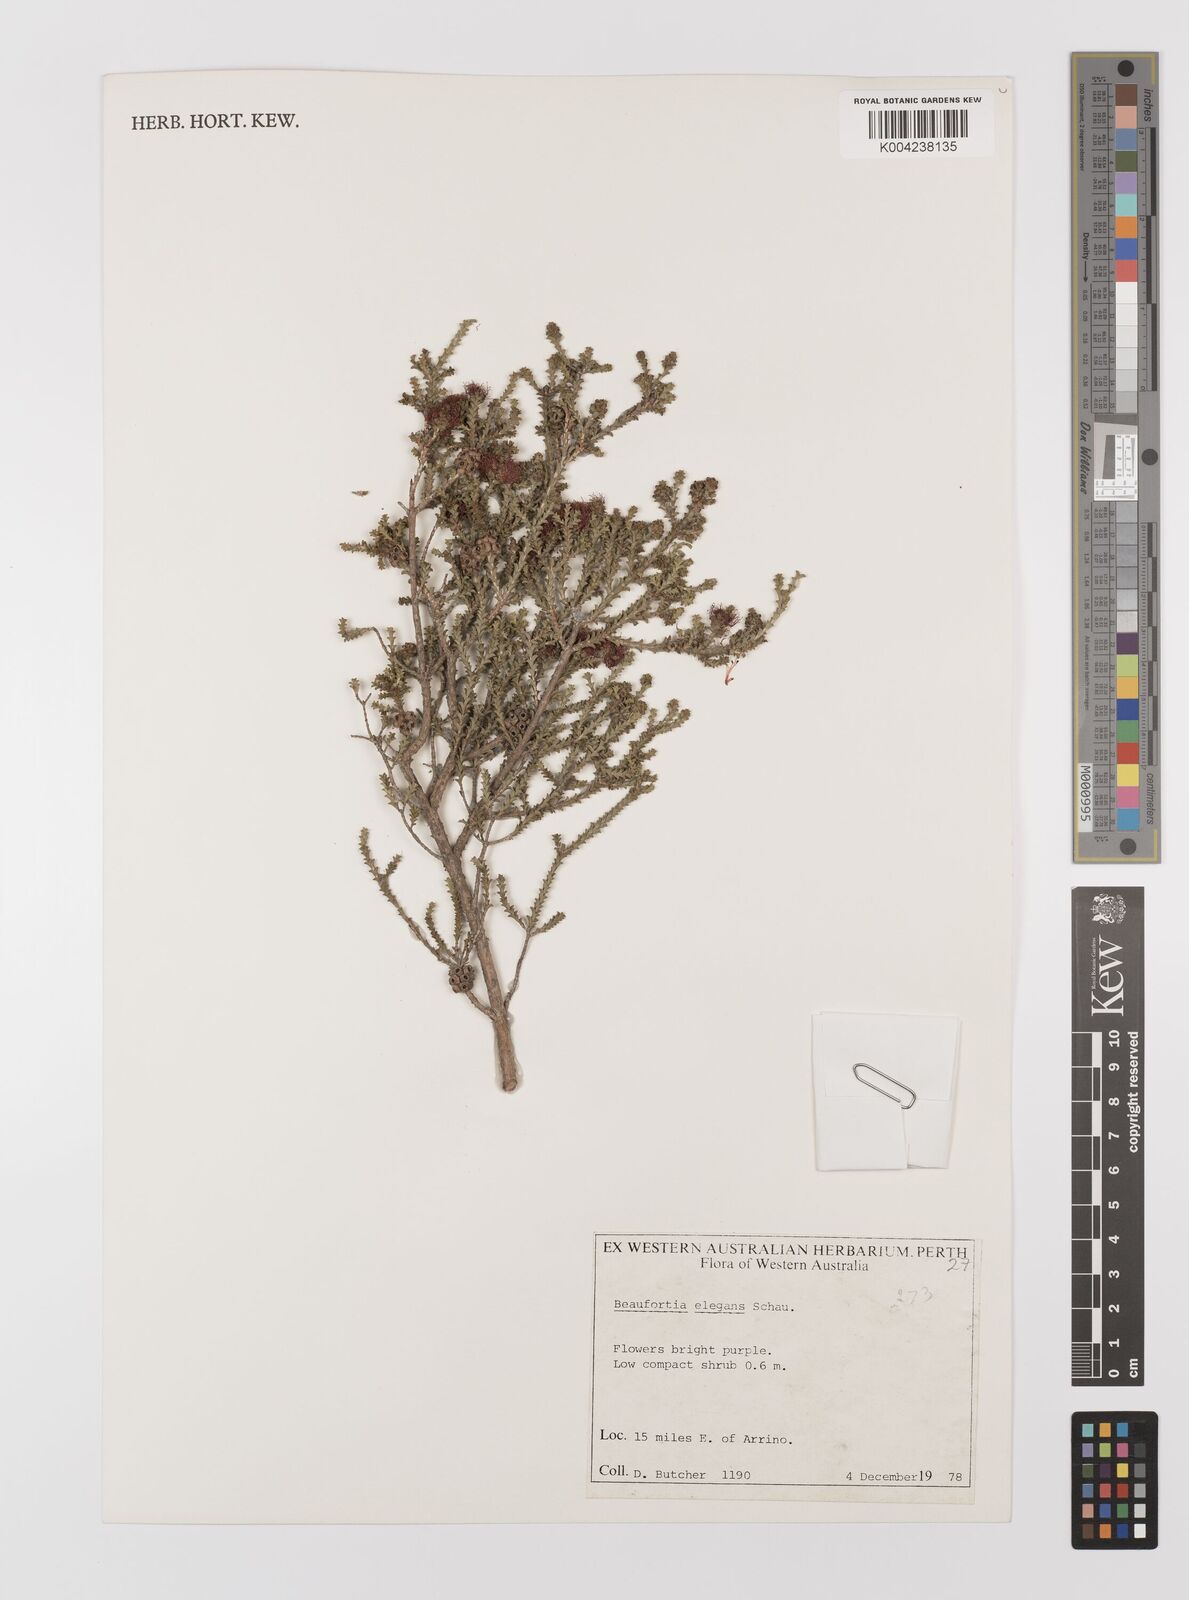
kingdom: Plantae
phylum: Tracheophyta
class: Magnoliopsida
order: Myrtales
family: Myrtaceae
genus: Melaleuca
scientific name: Melaleuca scitula
